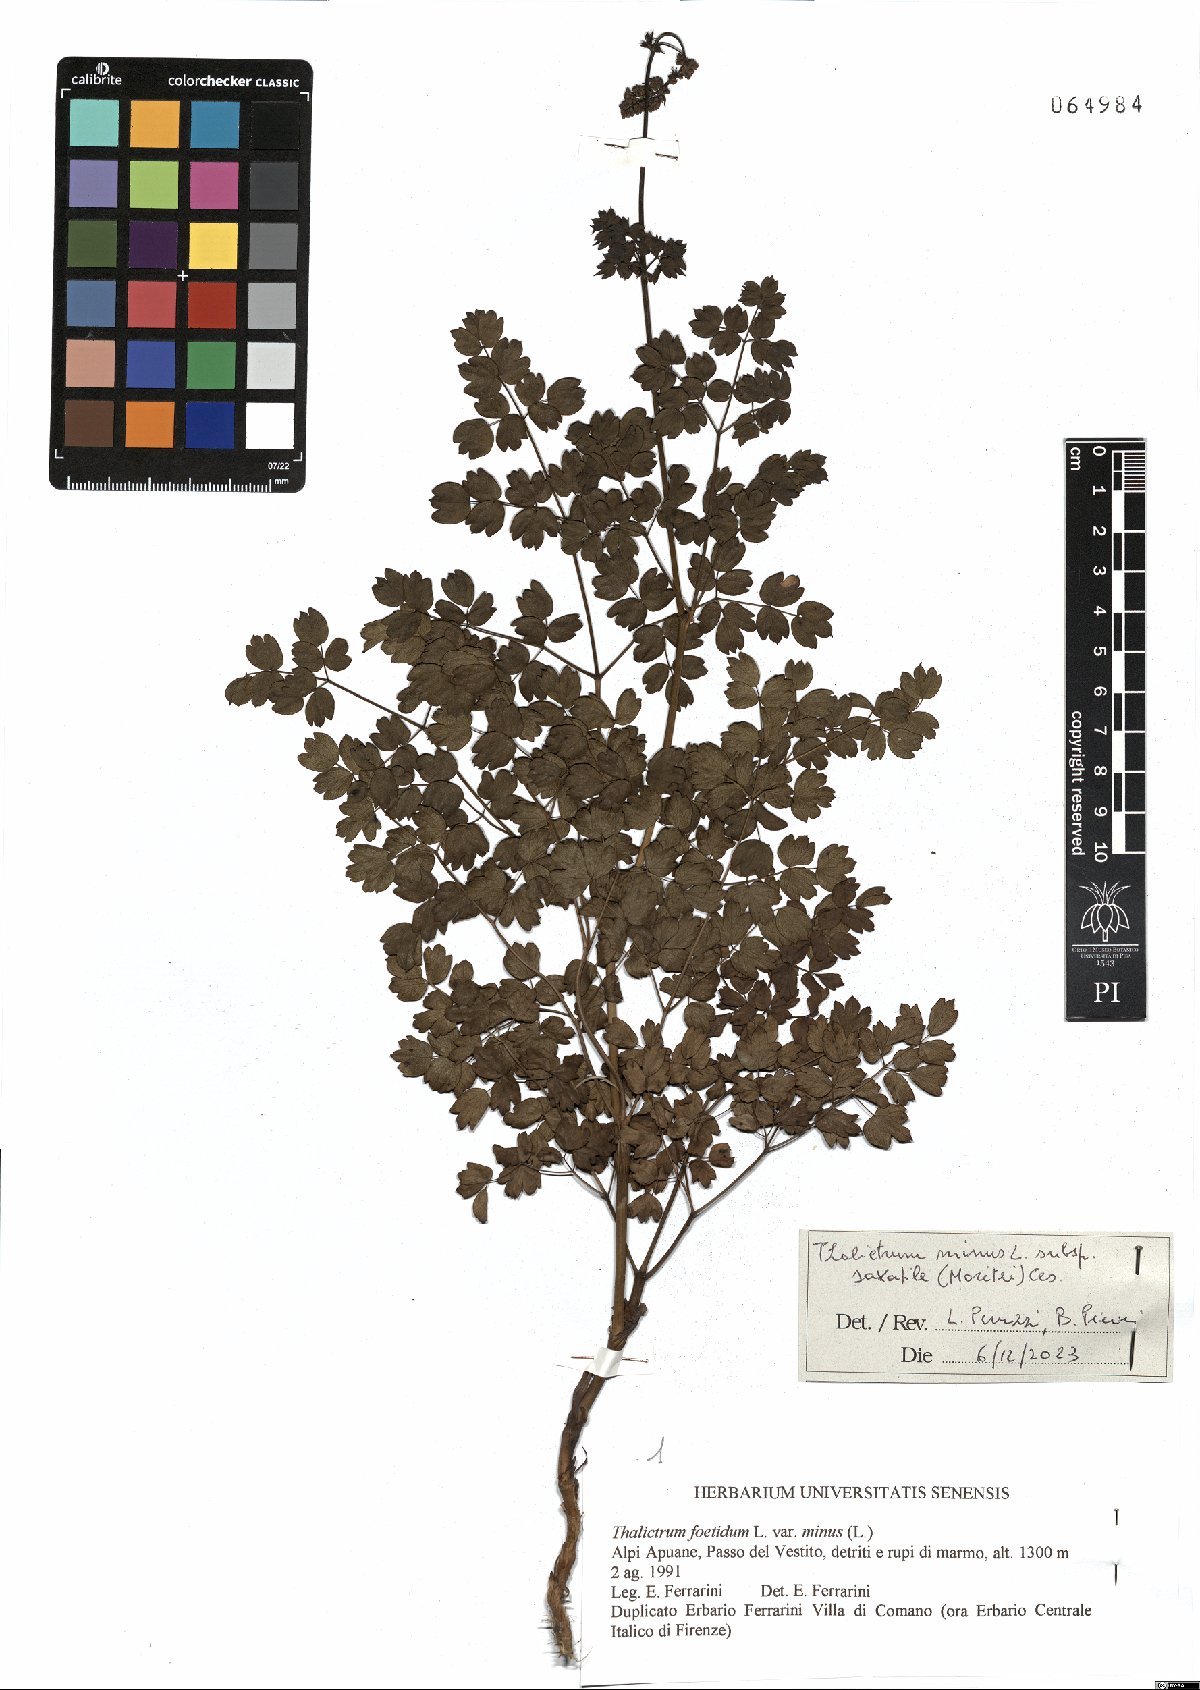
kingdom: Plantae
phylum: Tracheophyta
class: Magnoliopsida
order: Ranunculales
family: Ranunculaceae
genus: Thalictrum
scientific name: Thalictrum minus
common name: Lesser meadow-rue
